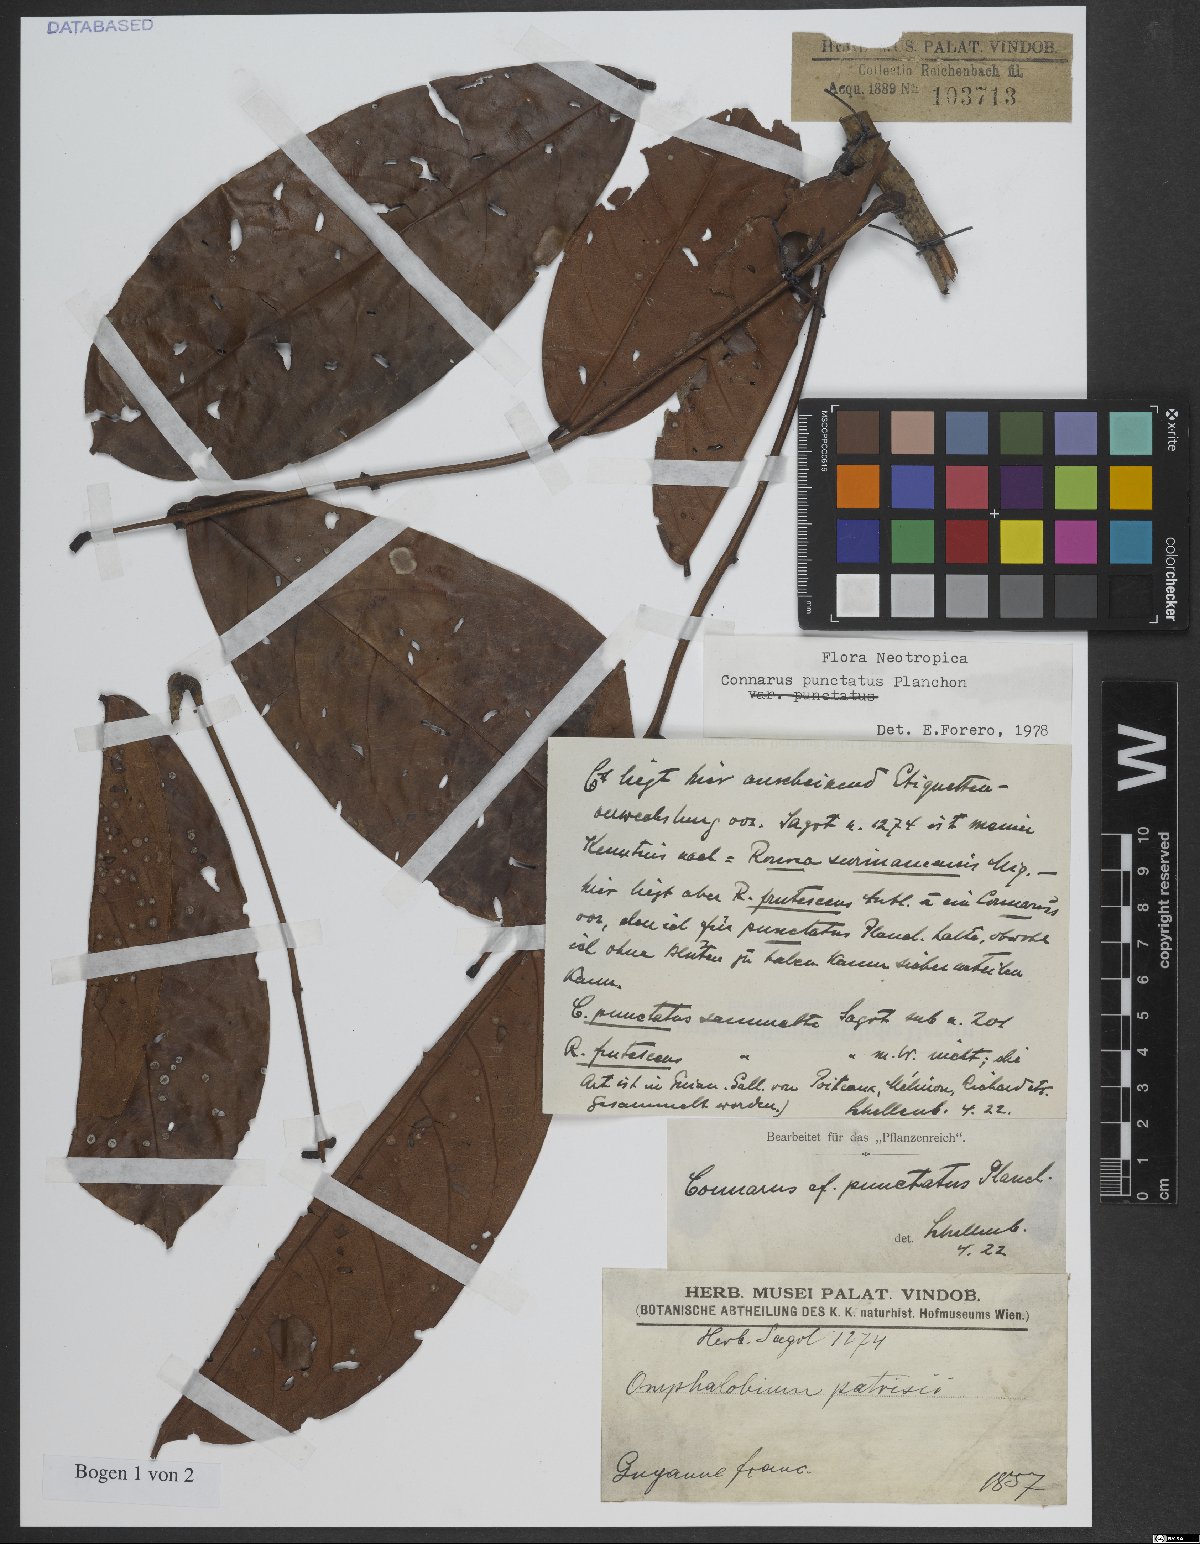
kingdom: Plantae
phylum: Tracheophyta
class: Magnoliopsida
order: Oxalidales
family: Connaraceae
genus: Connarus
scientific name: Connarus punctatus
